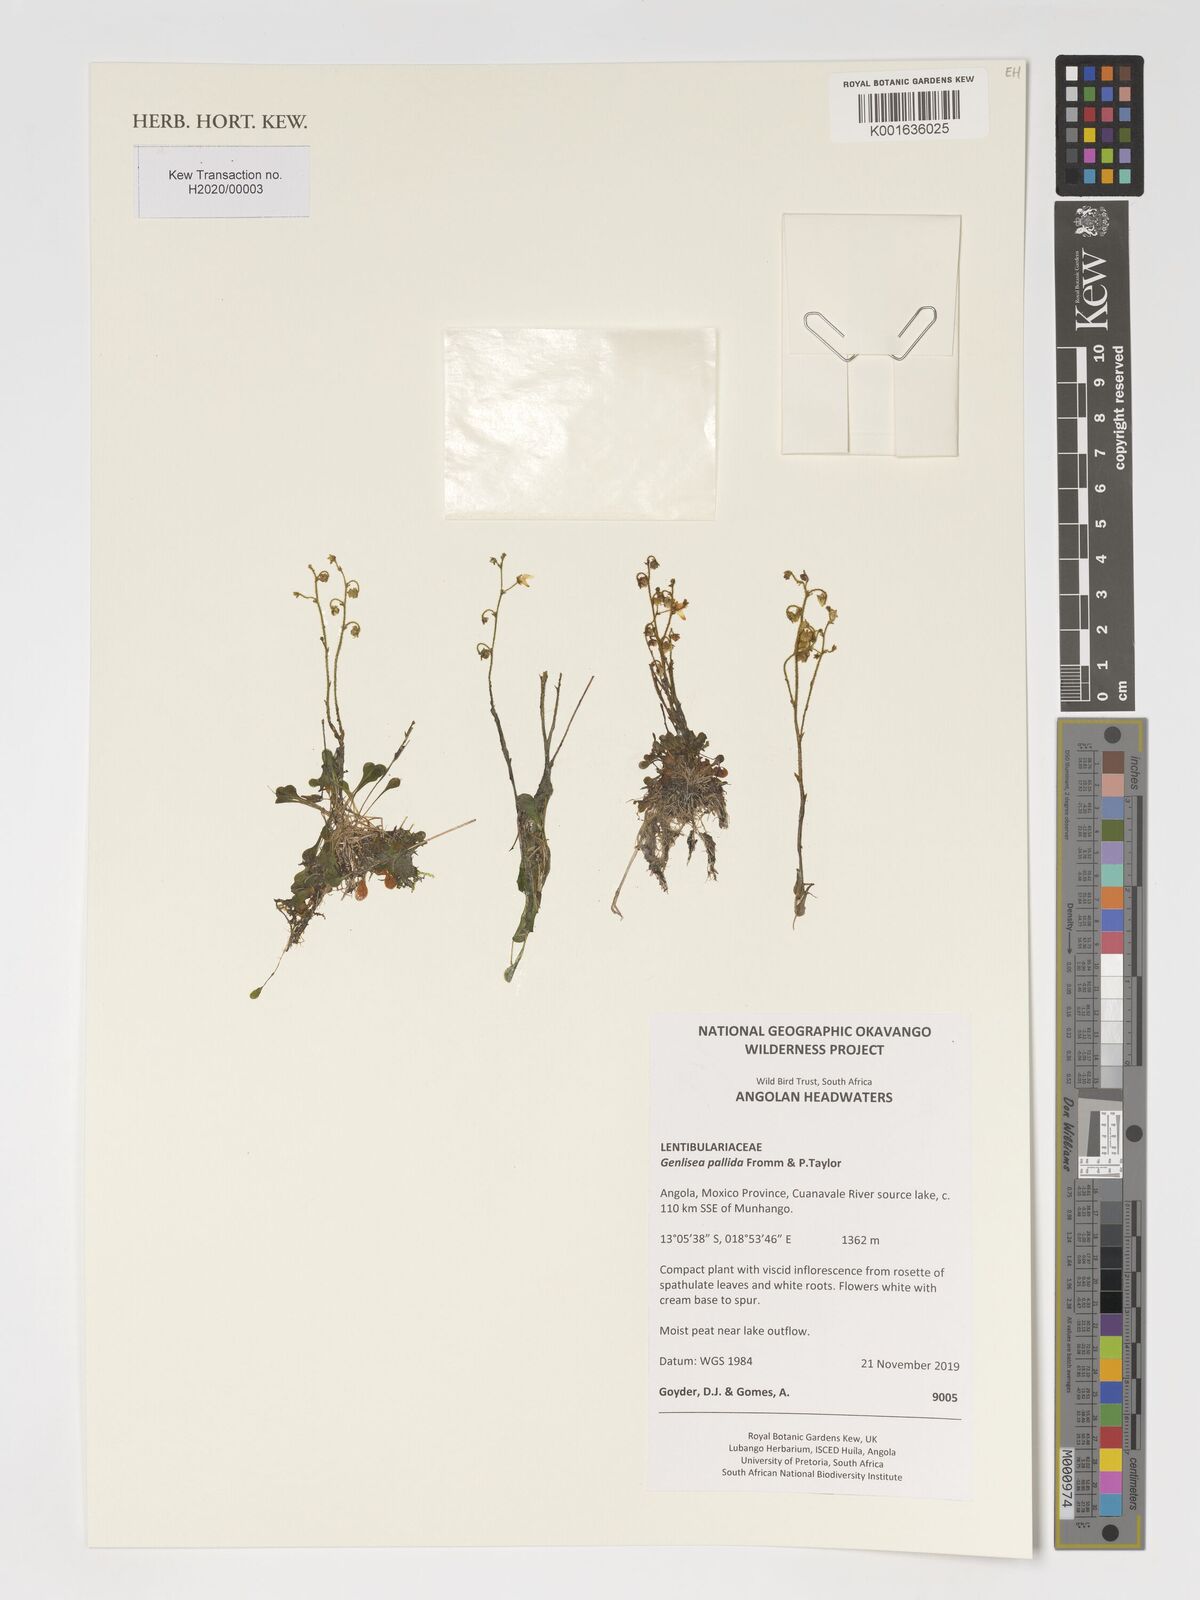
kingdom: Plantae
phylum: Tracheophyta
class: Magnoliopsida
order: Lamiales
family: Lentibulariaceae
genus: Genlisea
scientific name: Genlisea pallida
